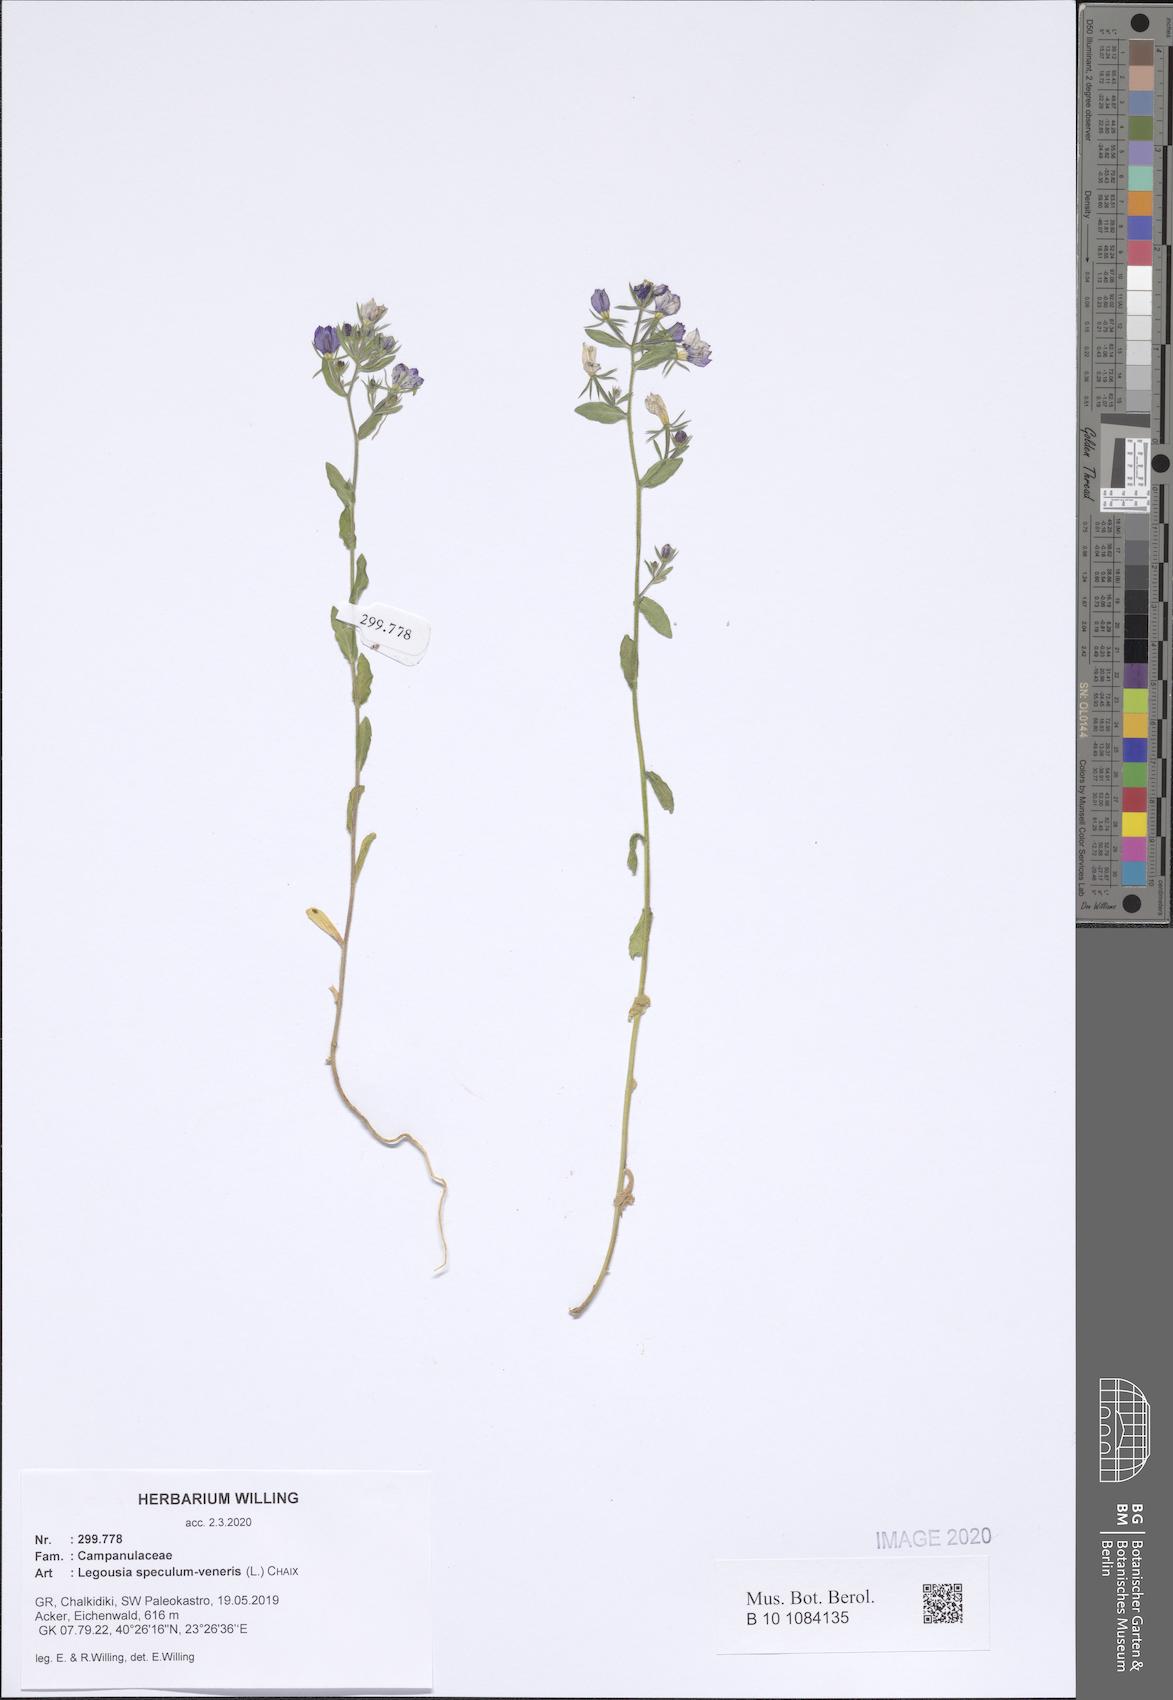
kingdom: Plantae
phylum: Tracheophyta
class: Magnoliopsida
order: Asterales
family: Campanulaceae
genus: Legousia
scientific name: Legousia speculum-veneris
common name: Large venus's-looking-glass
